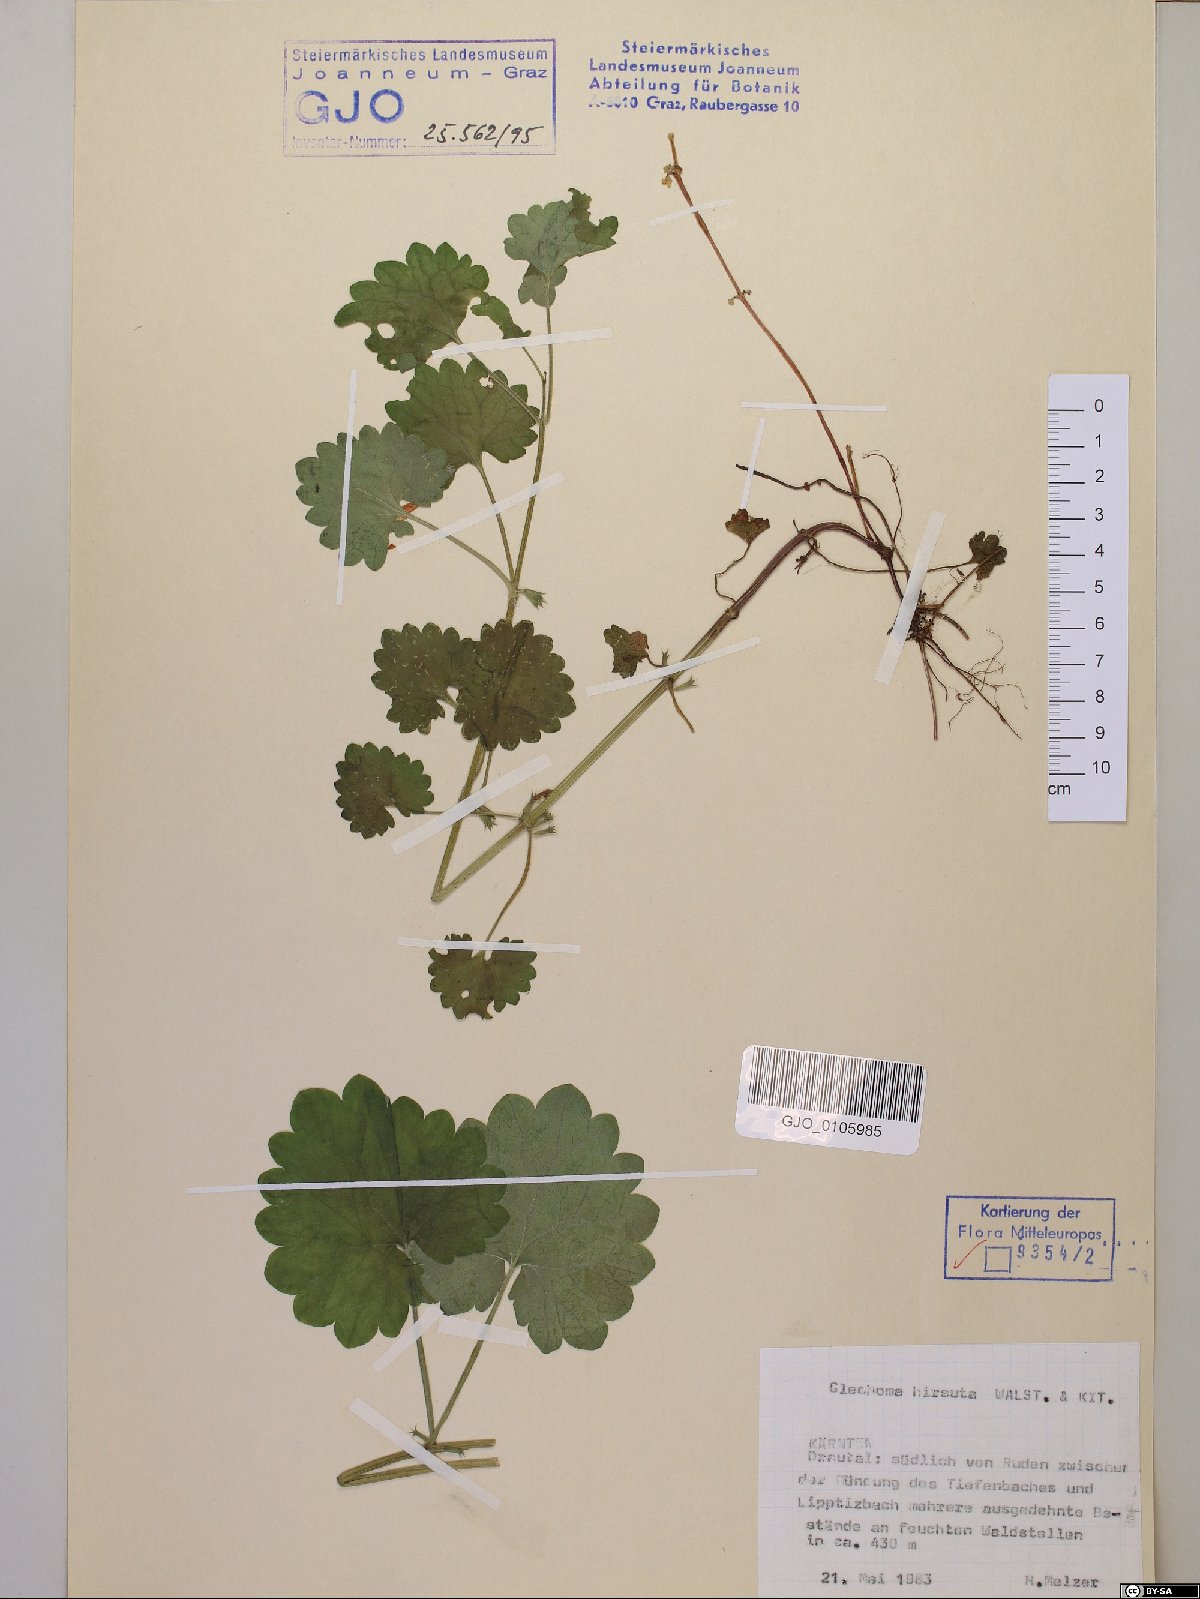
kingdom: Plantae
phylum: Tracheophyta
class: Magnoliopsida
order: Lamiales
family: Lamiaceae
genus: Glechoma
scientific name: Glechoma hirsuta
